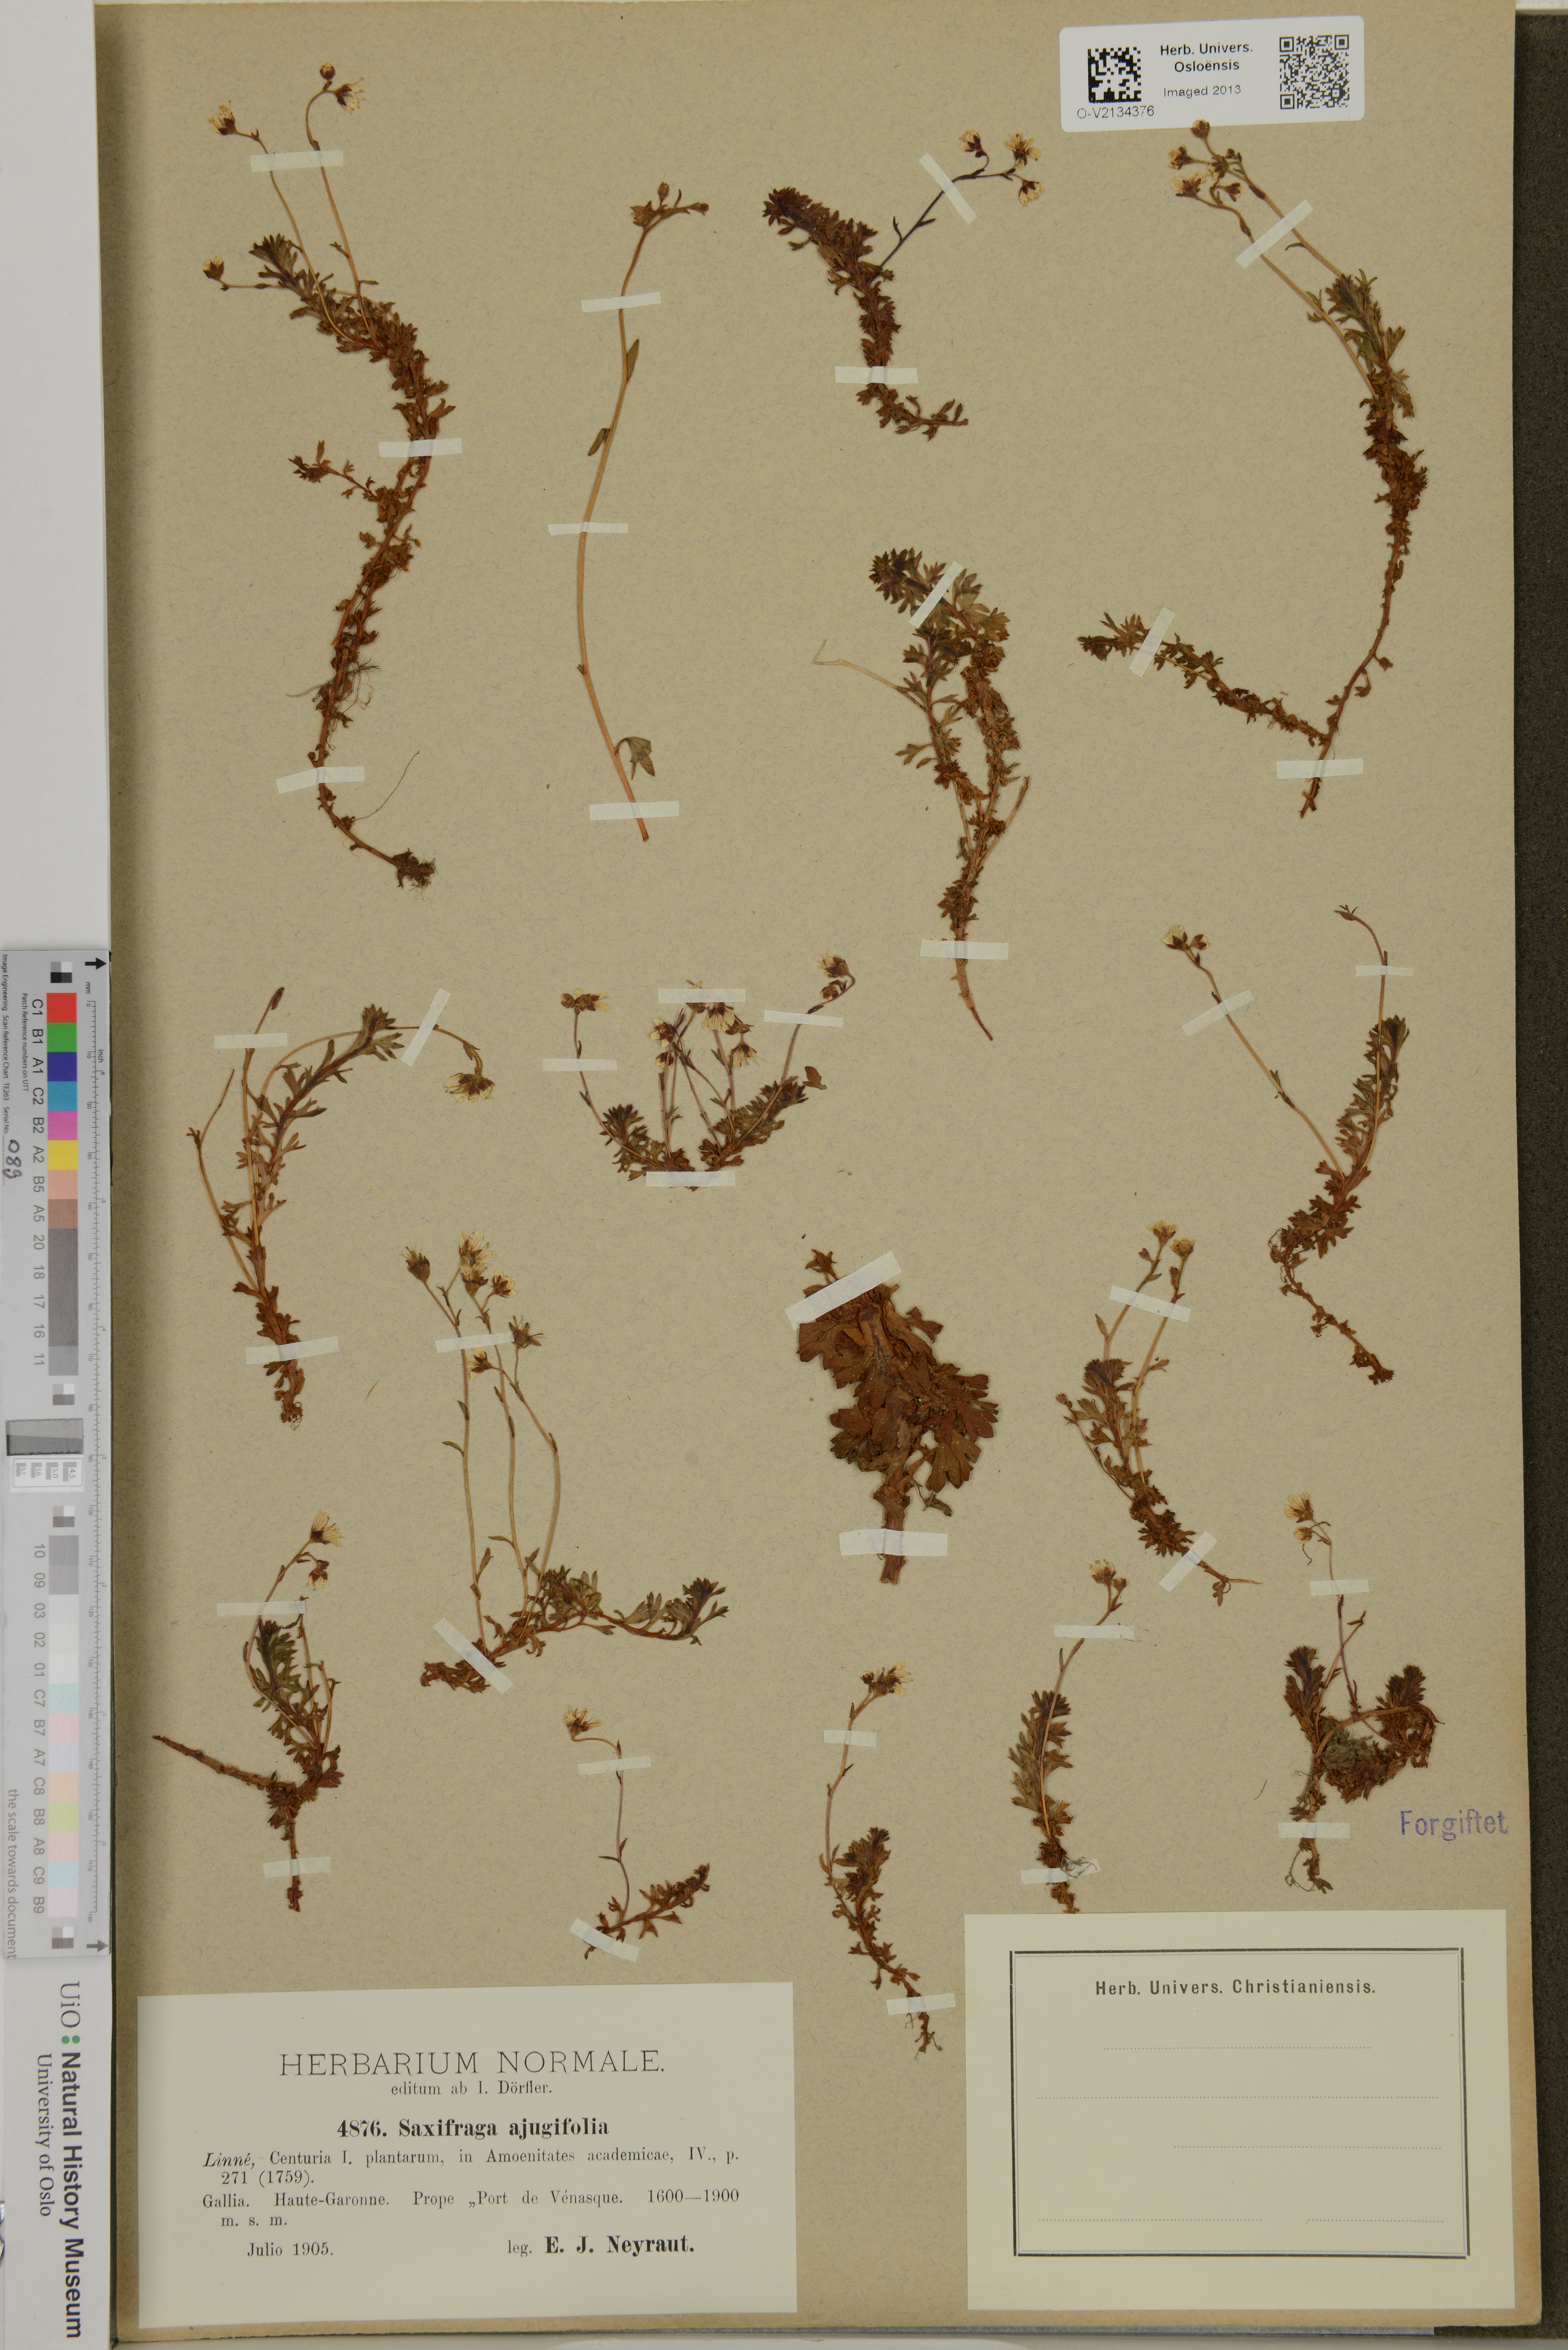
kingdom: Plantae
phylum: Tracheophyta
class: Magnoliopsida
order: Saxifragales
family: Saxifragaceae
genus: Saxifraga
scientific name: Saxifraga
